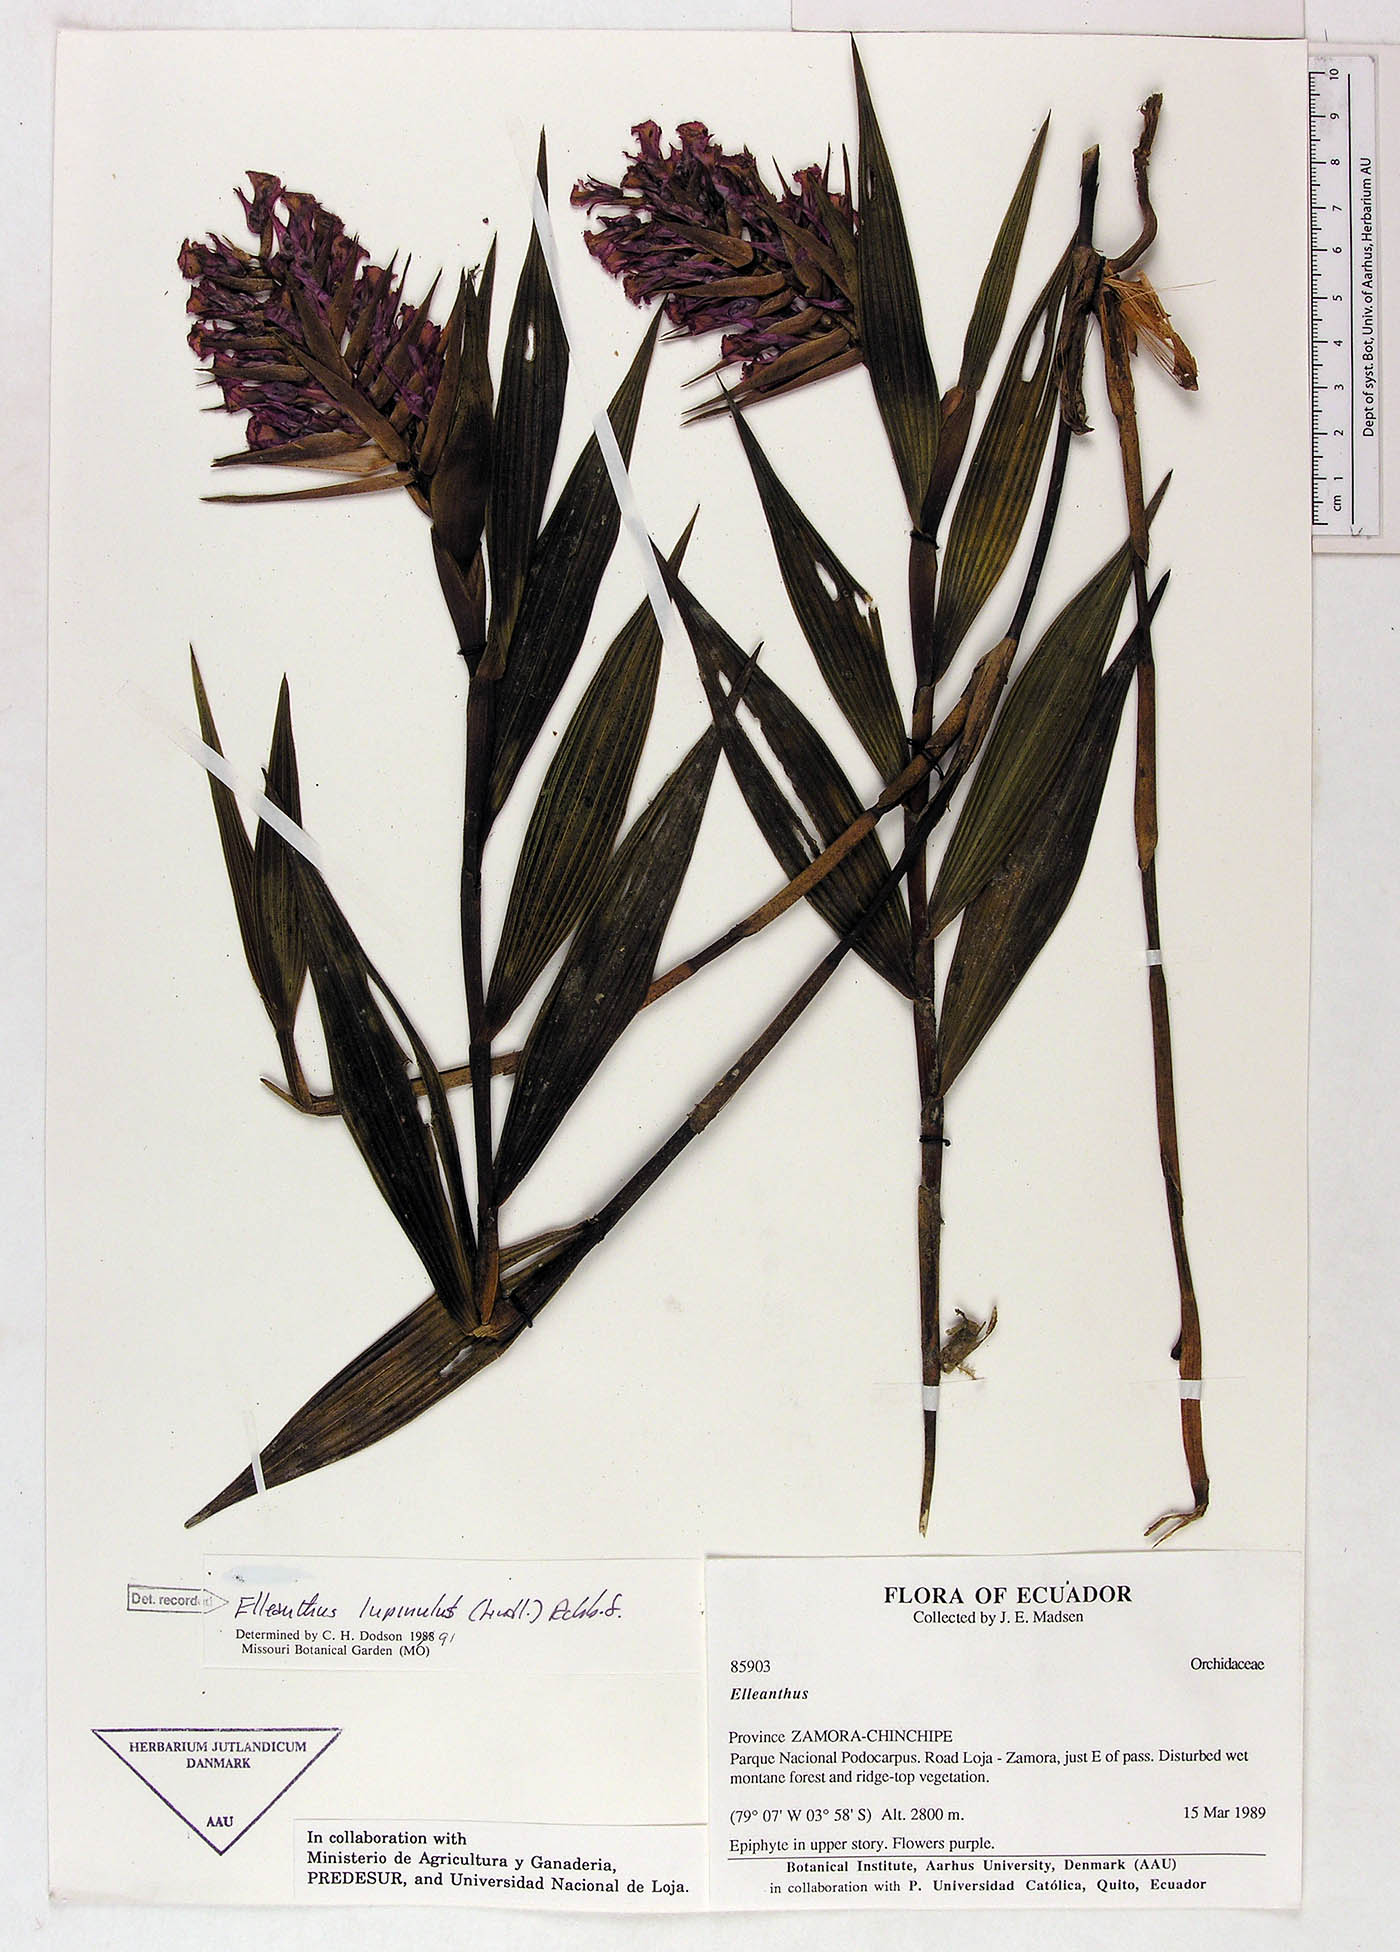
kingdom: Plantae
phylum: Tracheophyta
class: Liliopsida
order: Asparagales
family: Orchidaceae
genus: Elleanthus
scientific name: Elleanthus maculatus
